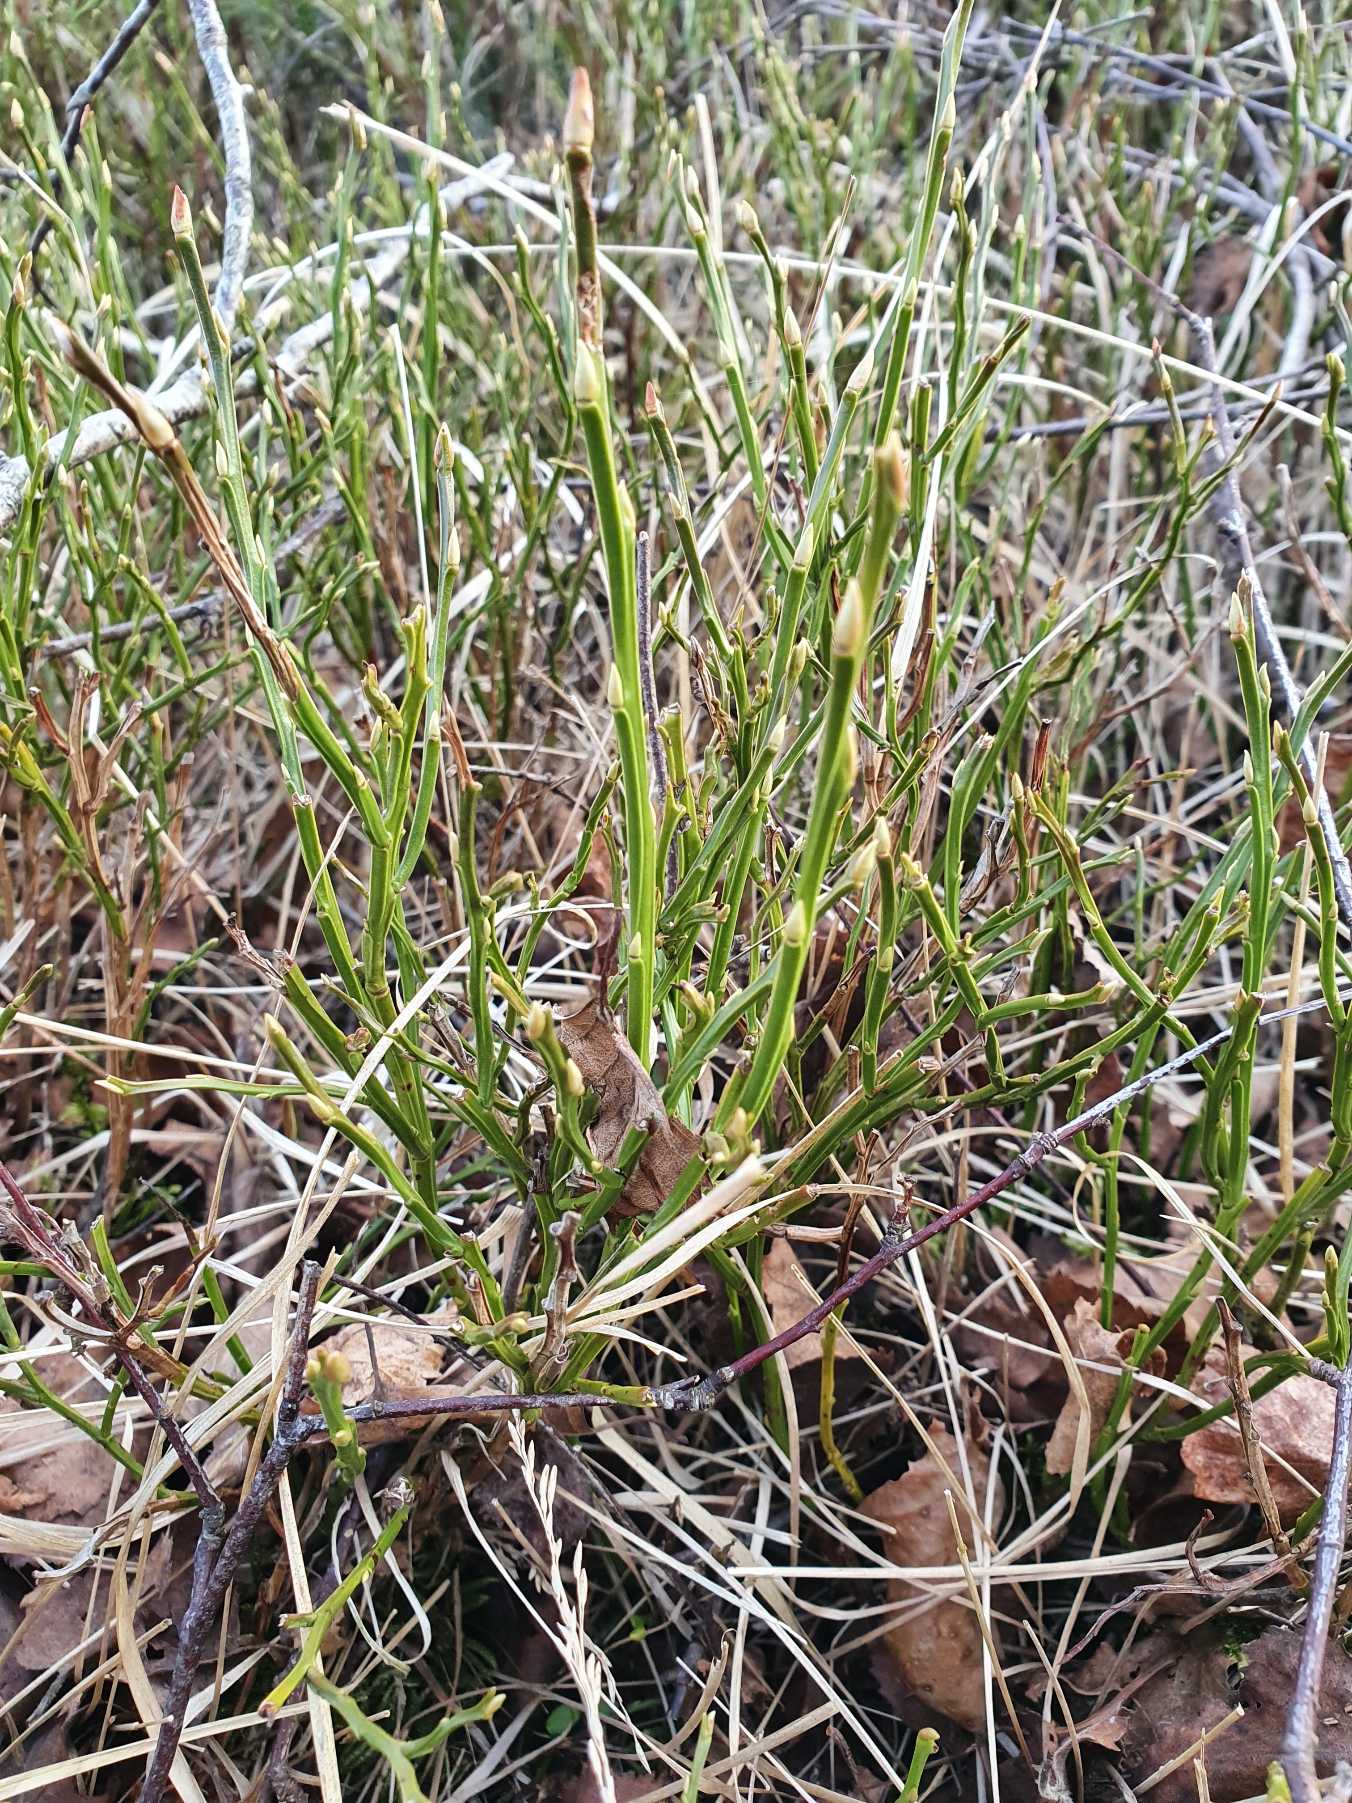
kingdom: Plantae
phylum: Tracheophyta
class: Magnoliopsida
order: Ericales
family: Ericaceae
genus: Vaccinium
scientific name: Vaccinium myrtillus
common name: Blåbær
